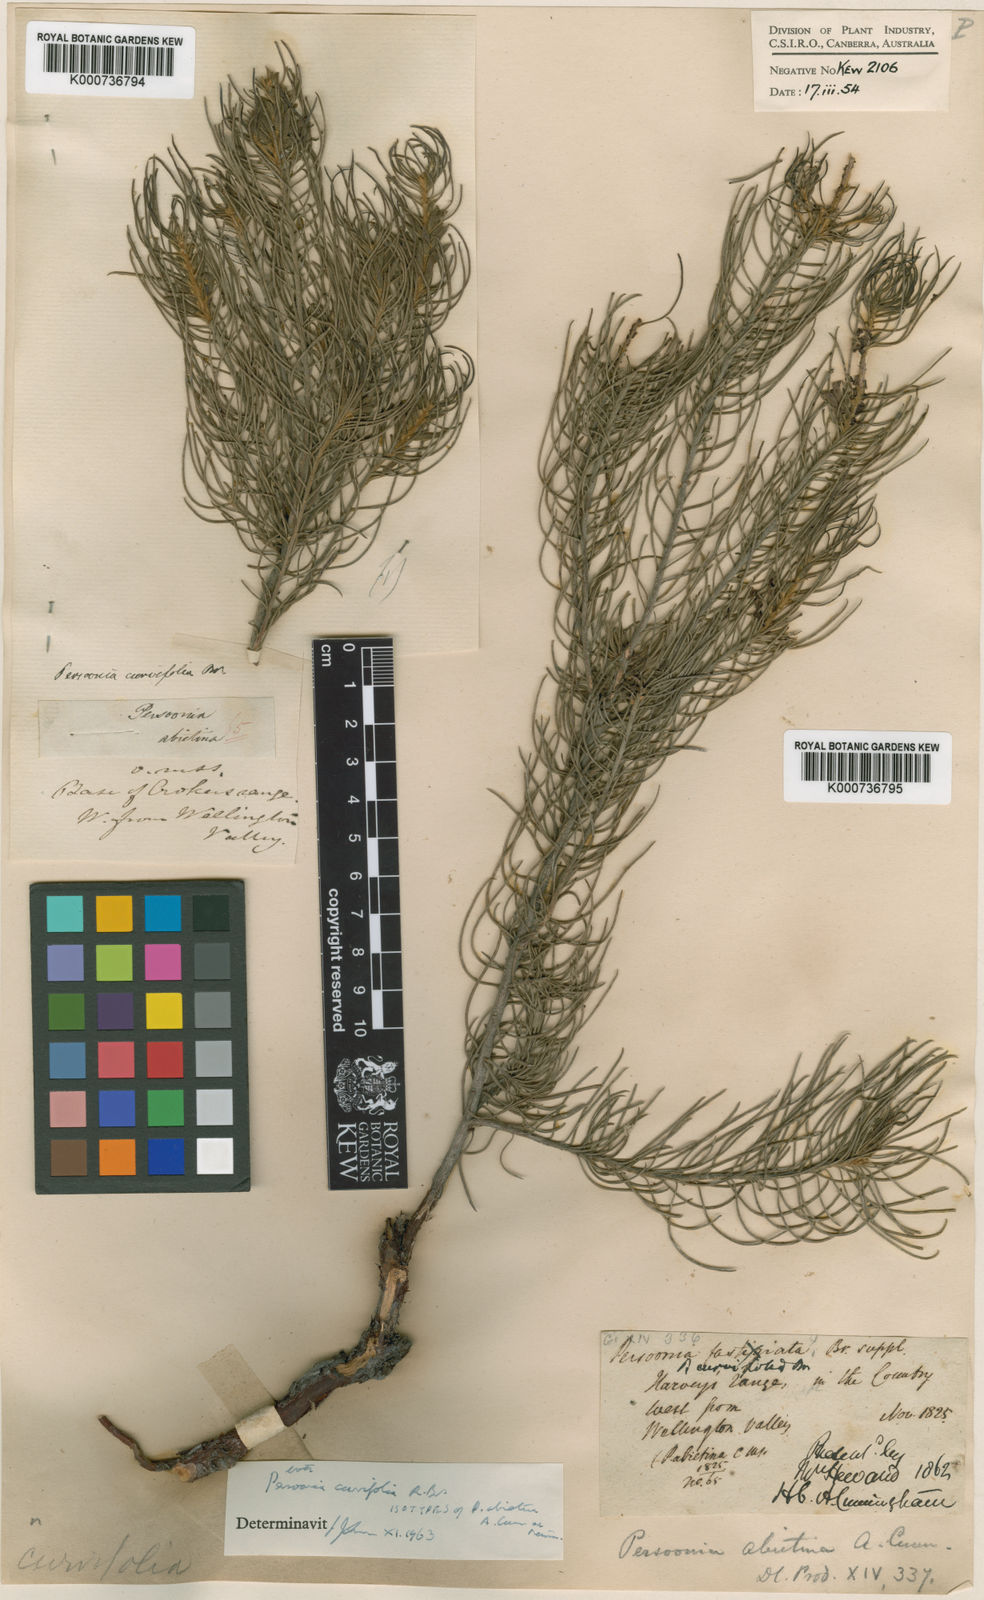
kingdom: Plantae
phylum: Tracheophyta
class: Magnoliopsida
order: Proteales
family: Proteaceae
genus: Persoonia
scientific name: Persoonia curvifolia
